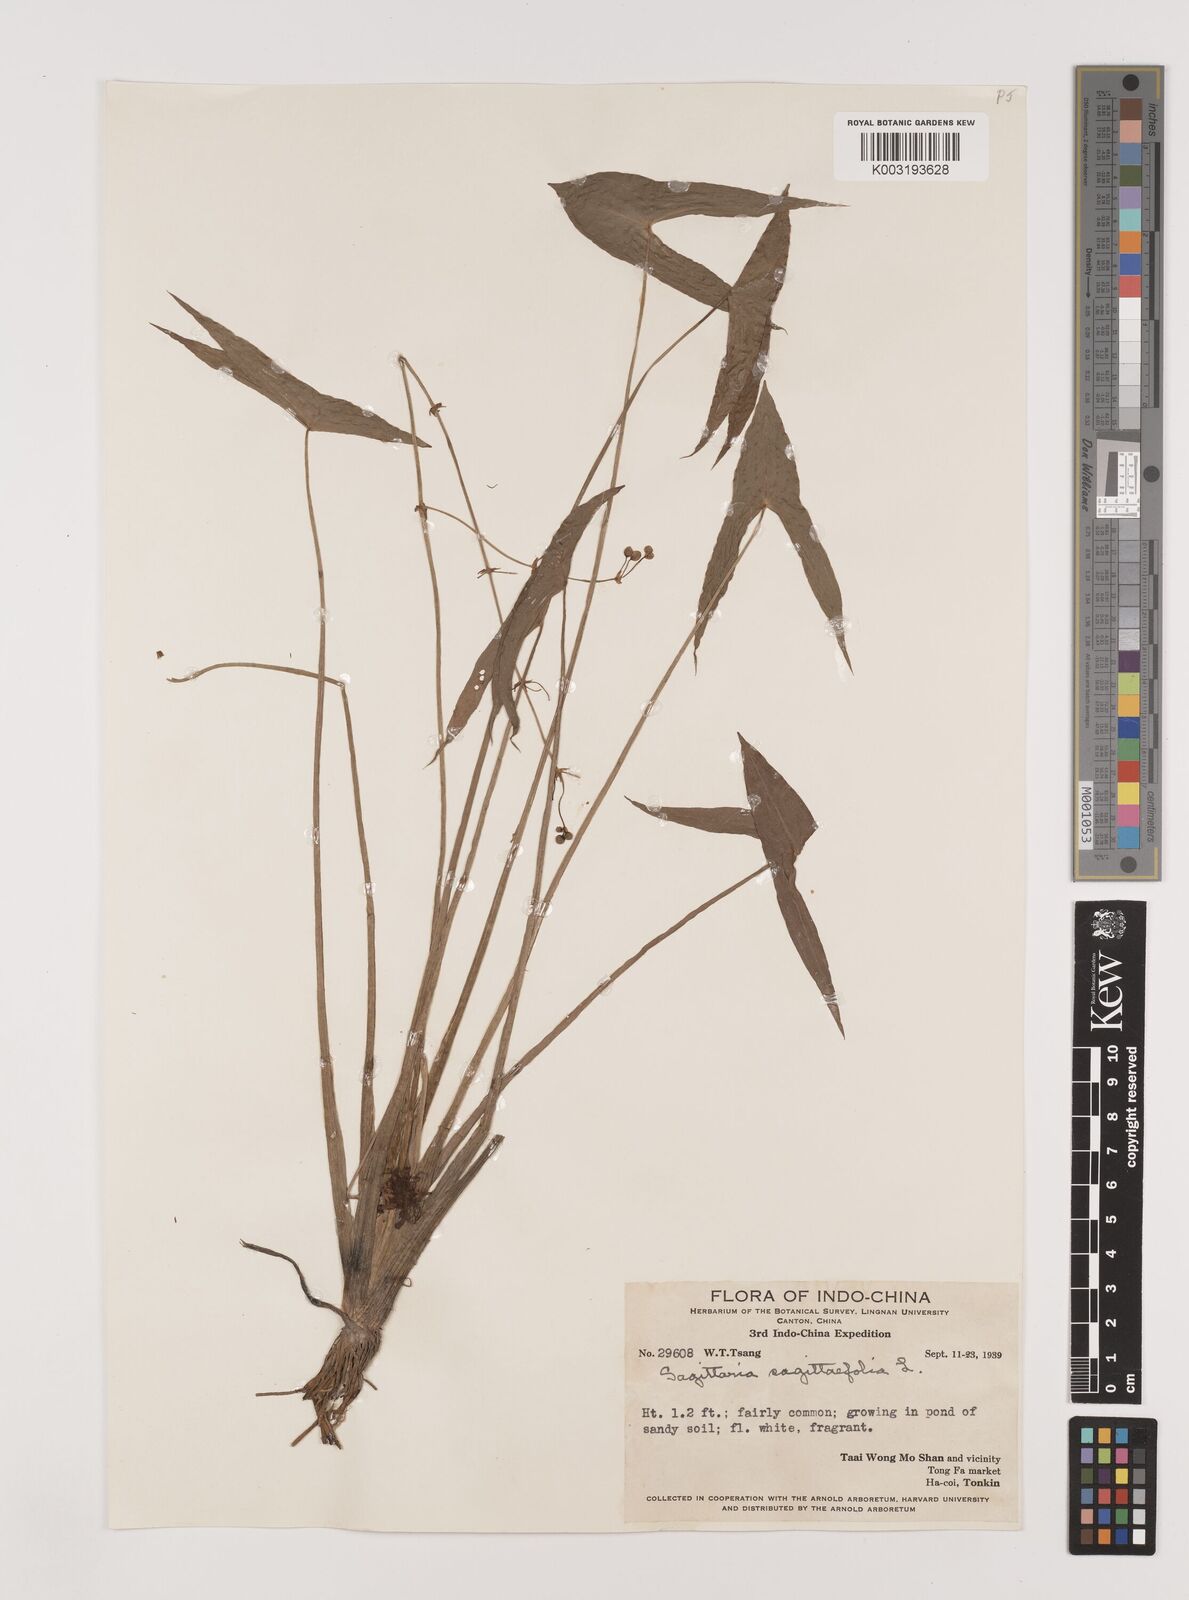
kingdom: Plantae
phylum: Tracheophyta
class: Liliopsida
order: Alismatales
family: Alismataceae
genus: Sagittaria
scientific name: Sagittaria sagittifolia
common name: Arrowhead
